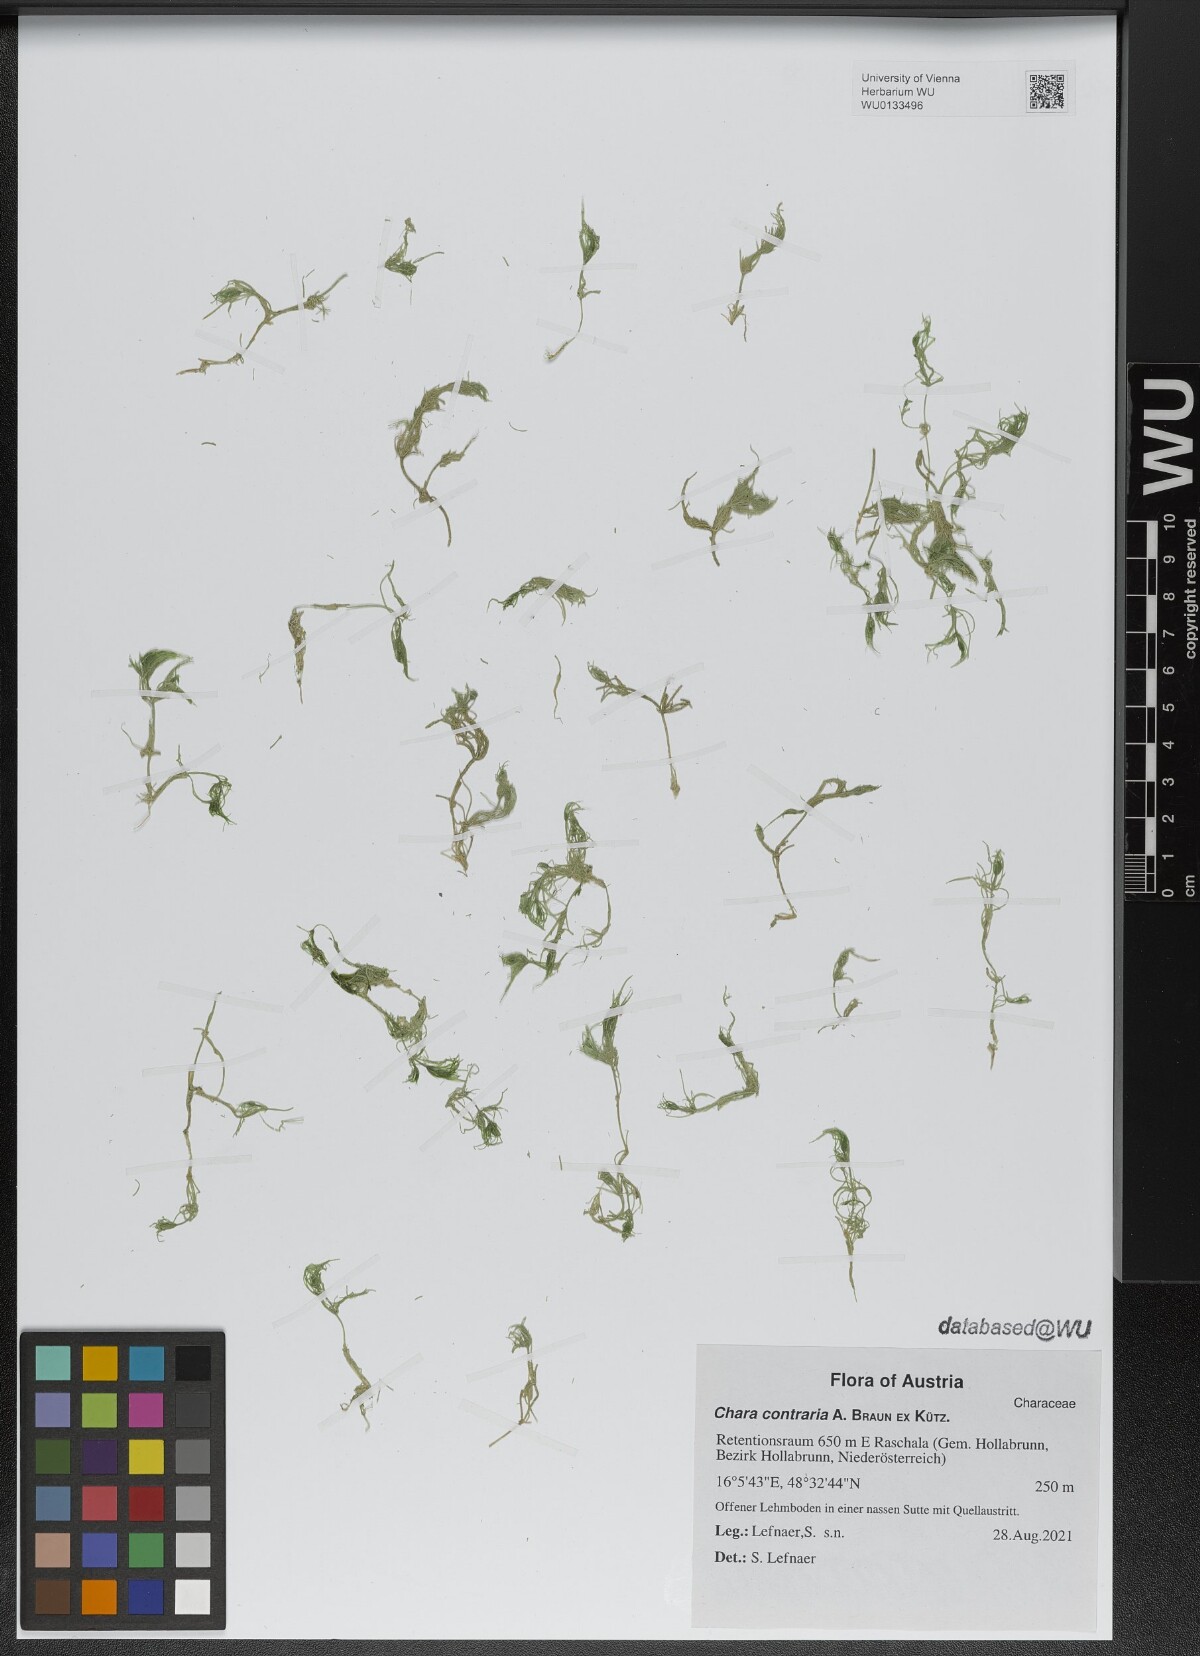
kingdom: Plantae
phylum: Charophyta
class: Charophyceae
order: Charales
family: Characeae
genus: Chara
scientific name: Chara contraria
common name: Opposite stonewort
